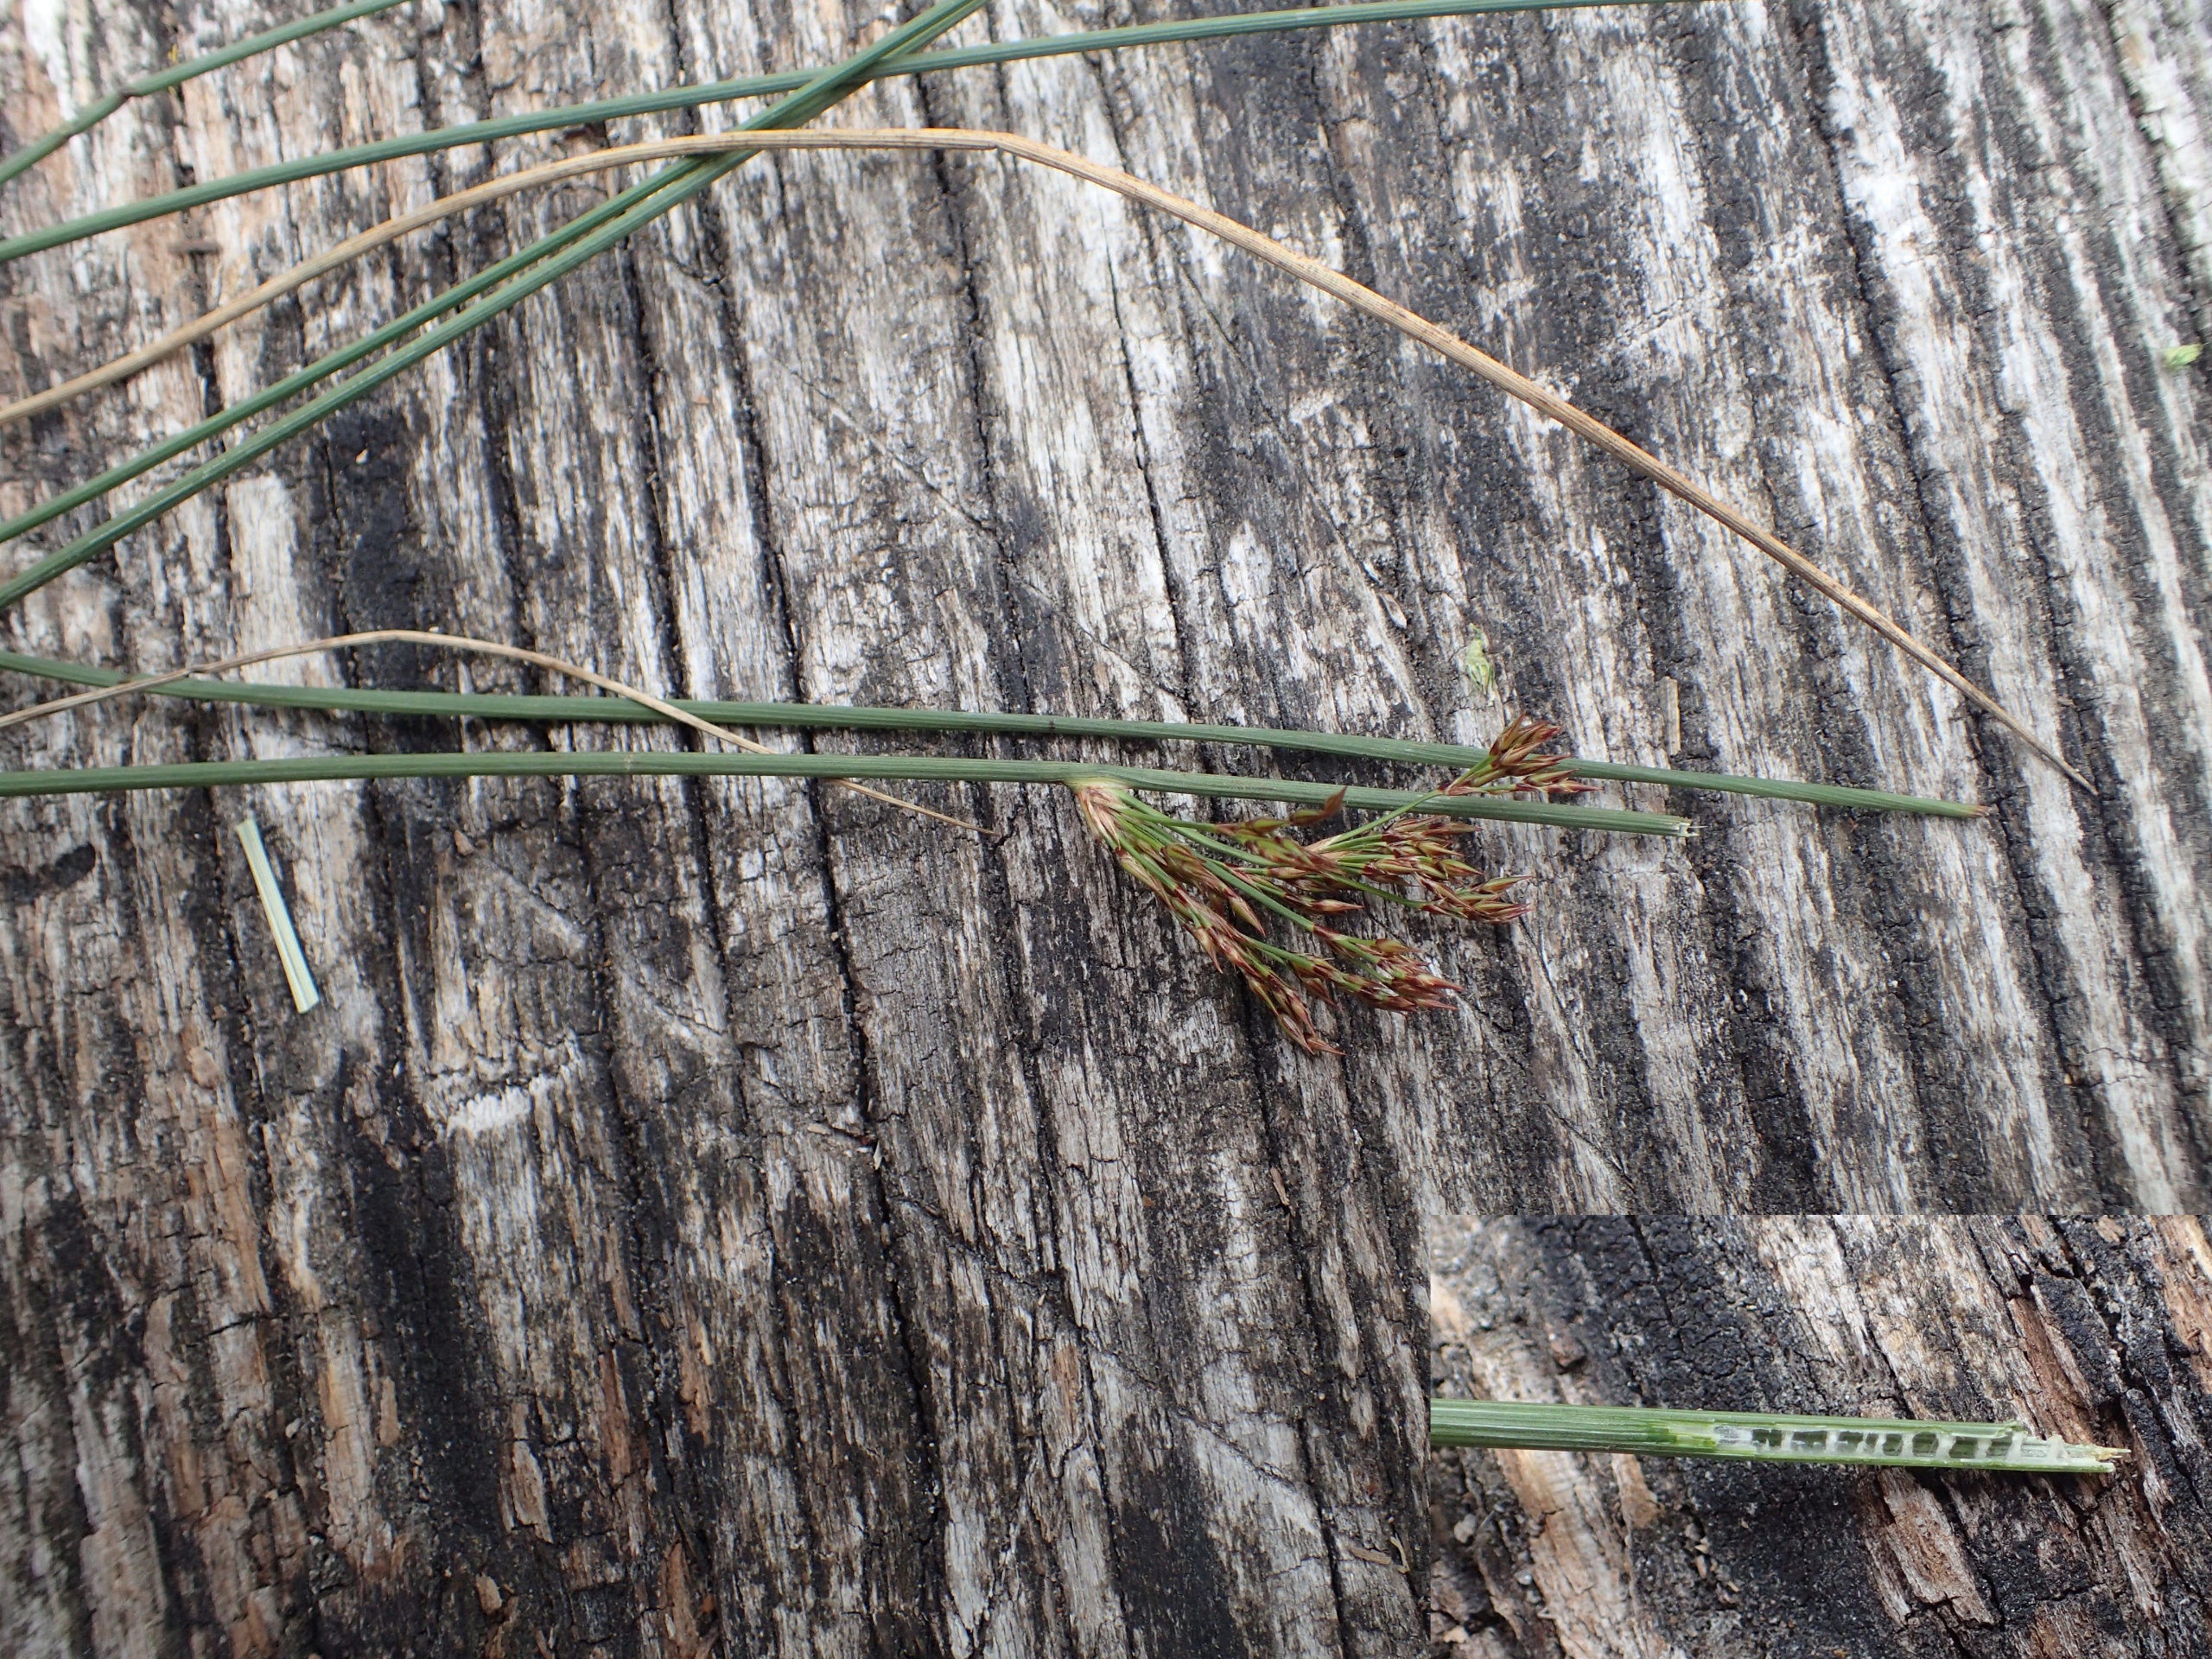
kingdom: Plantae
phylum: Tracheophyta
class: Liliopsida
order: Poales
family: Juncaceae
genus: Juncus
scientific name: Juncus inflexus
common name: Blågrå siv
